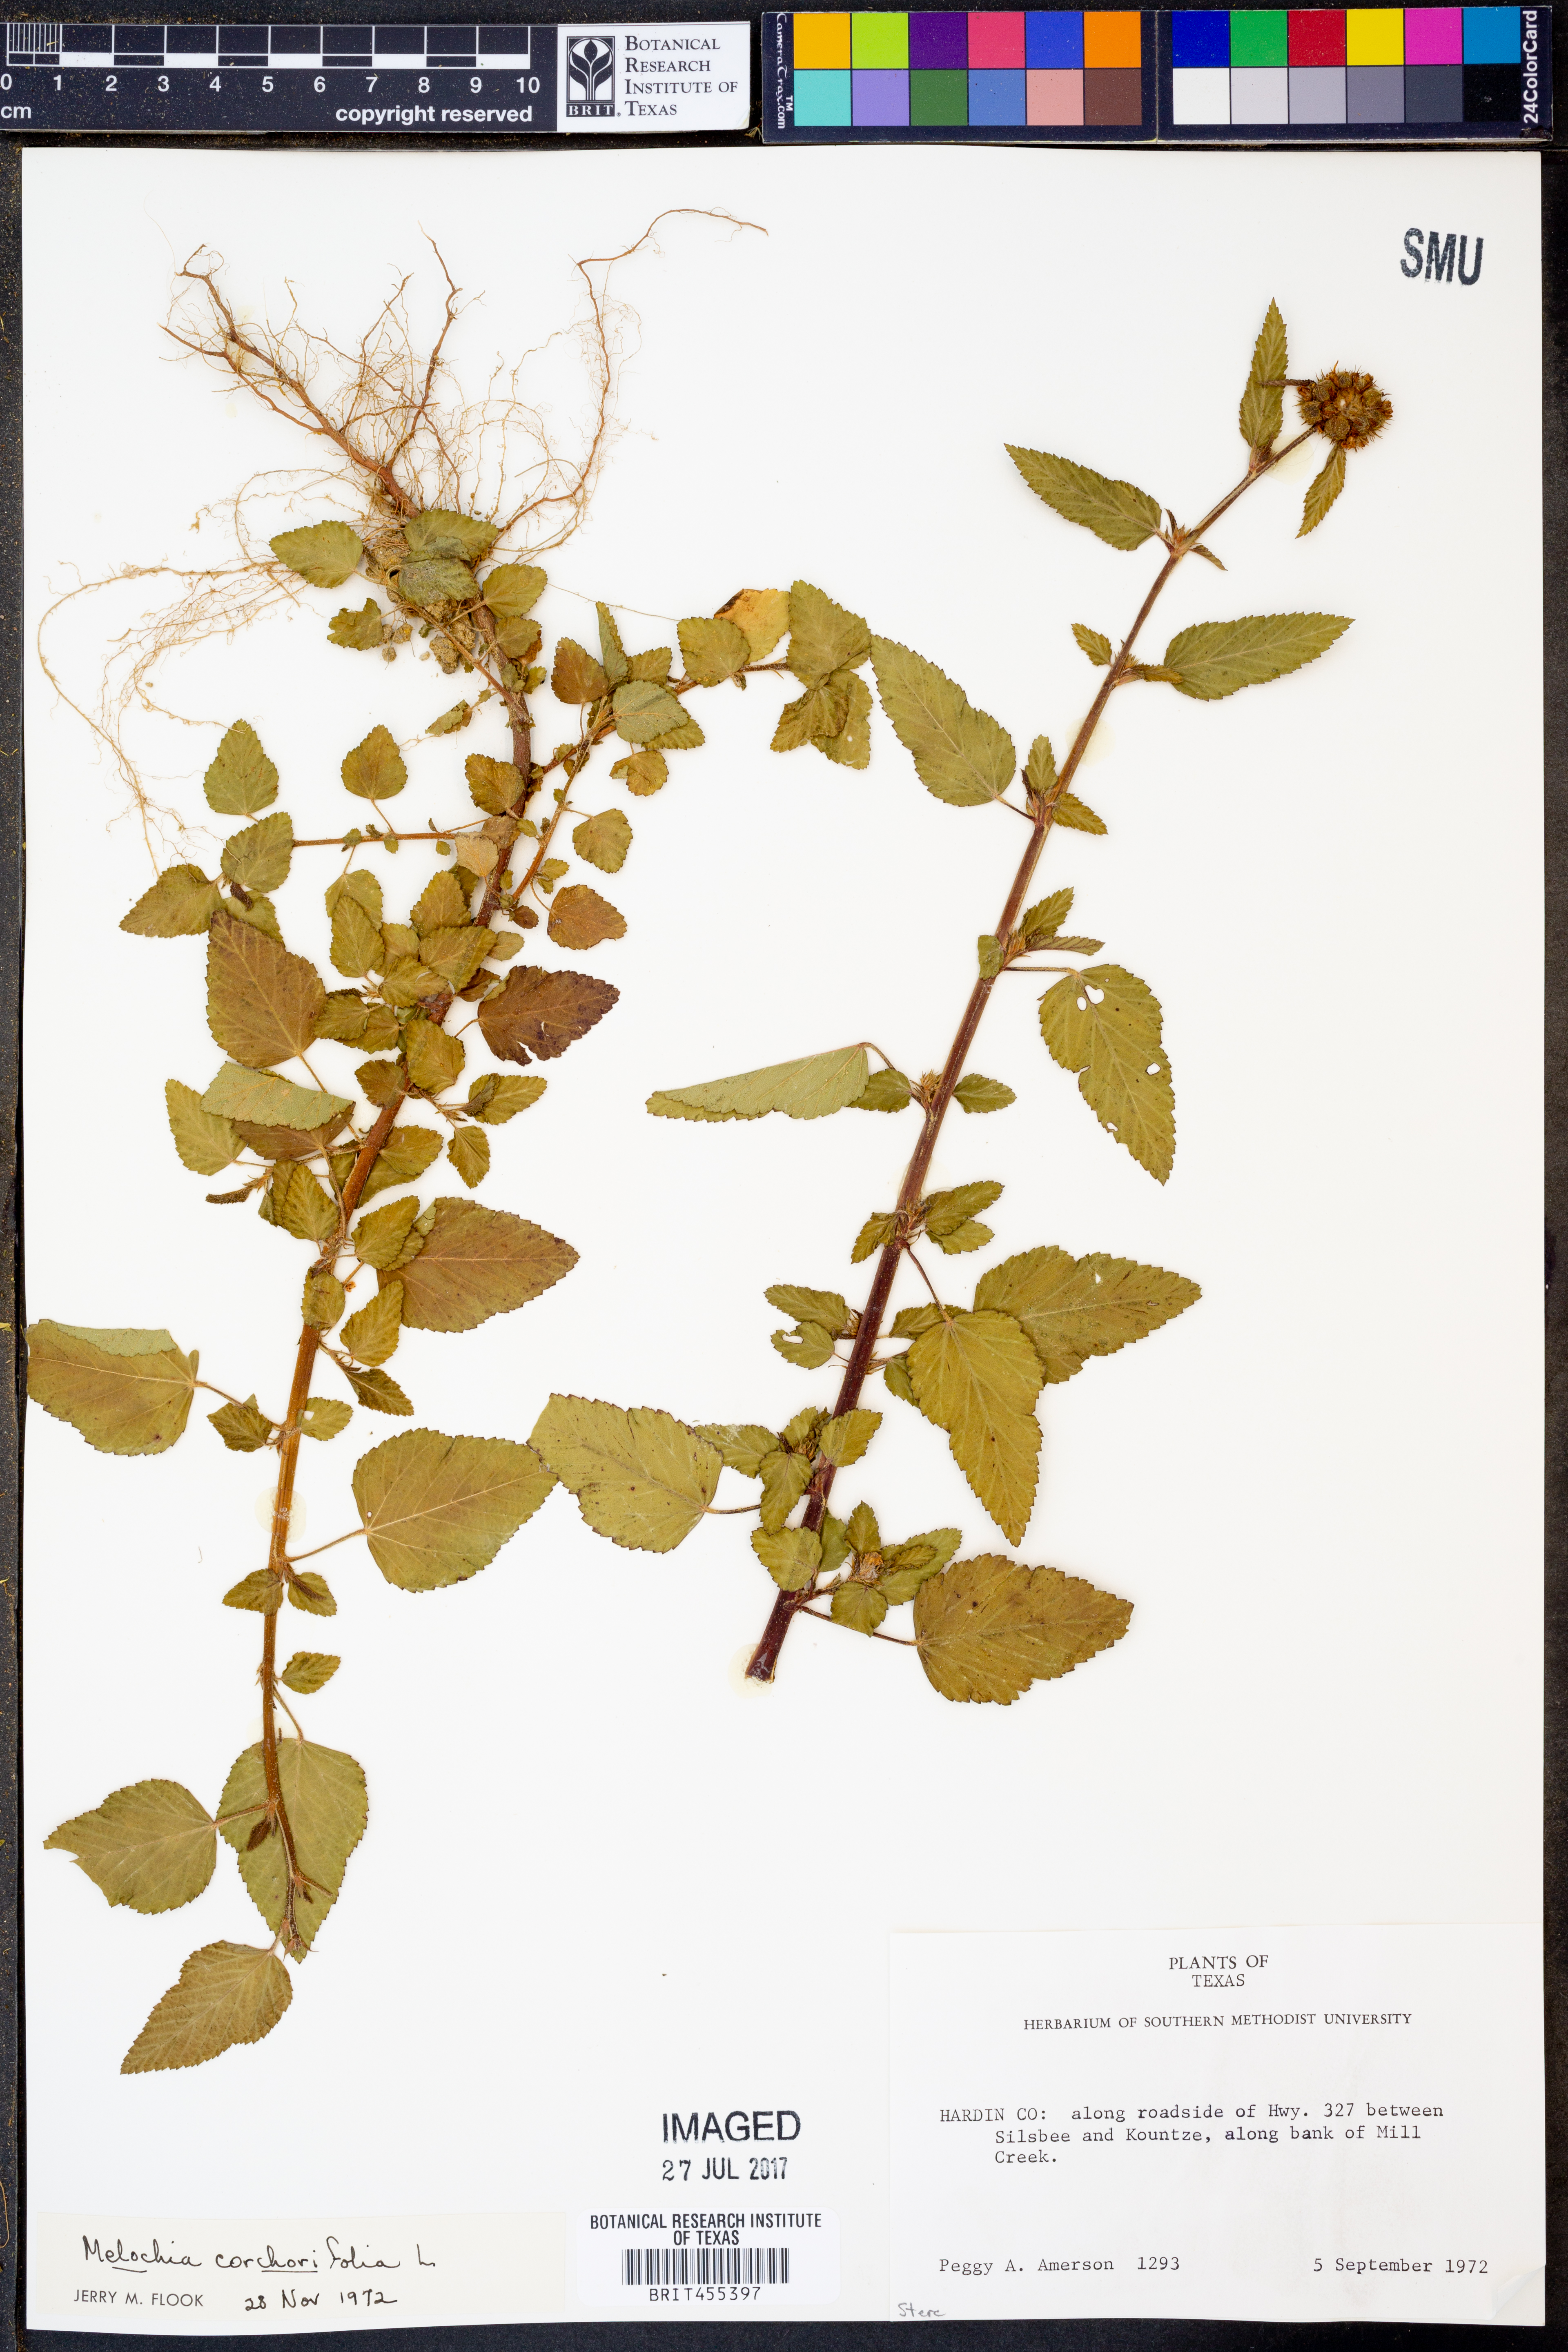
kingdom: Plantae
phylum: Tracheophyta
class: Magnoliopsida
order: Malvales
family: Malvaceae
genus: Melochia
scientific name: Melochia corchorifolia
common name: Chocolateweed
